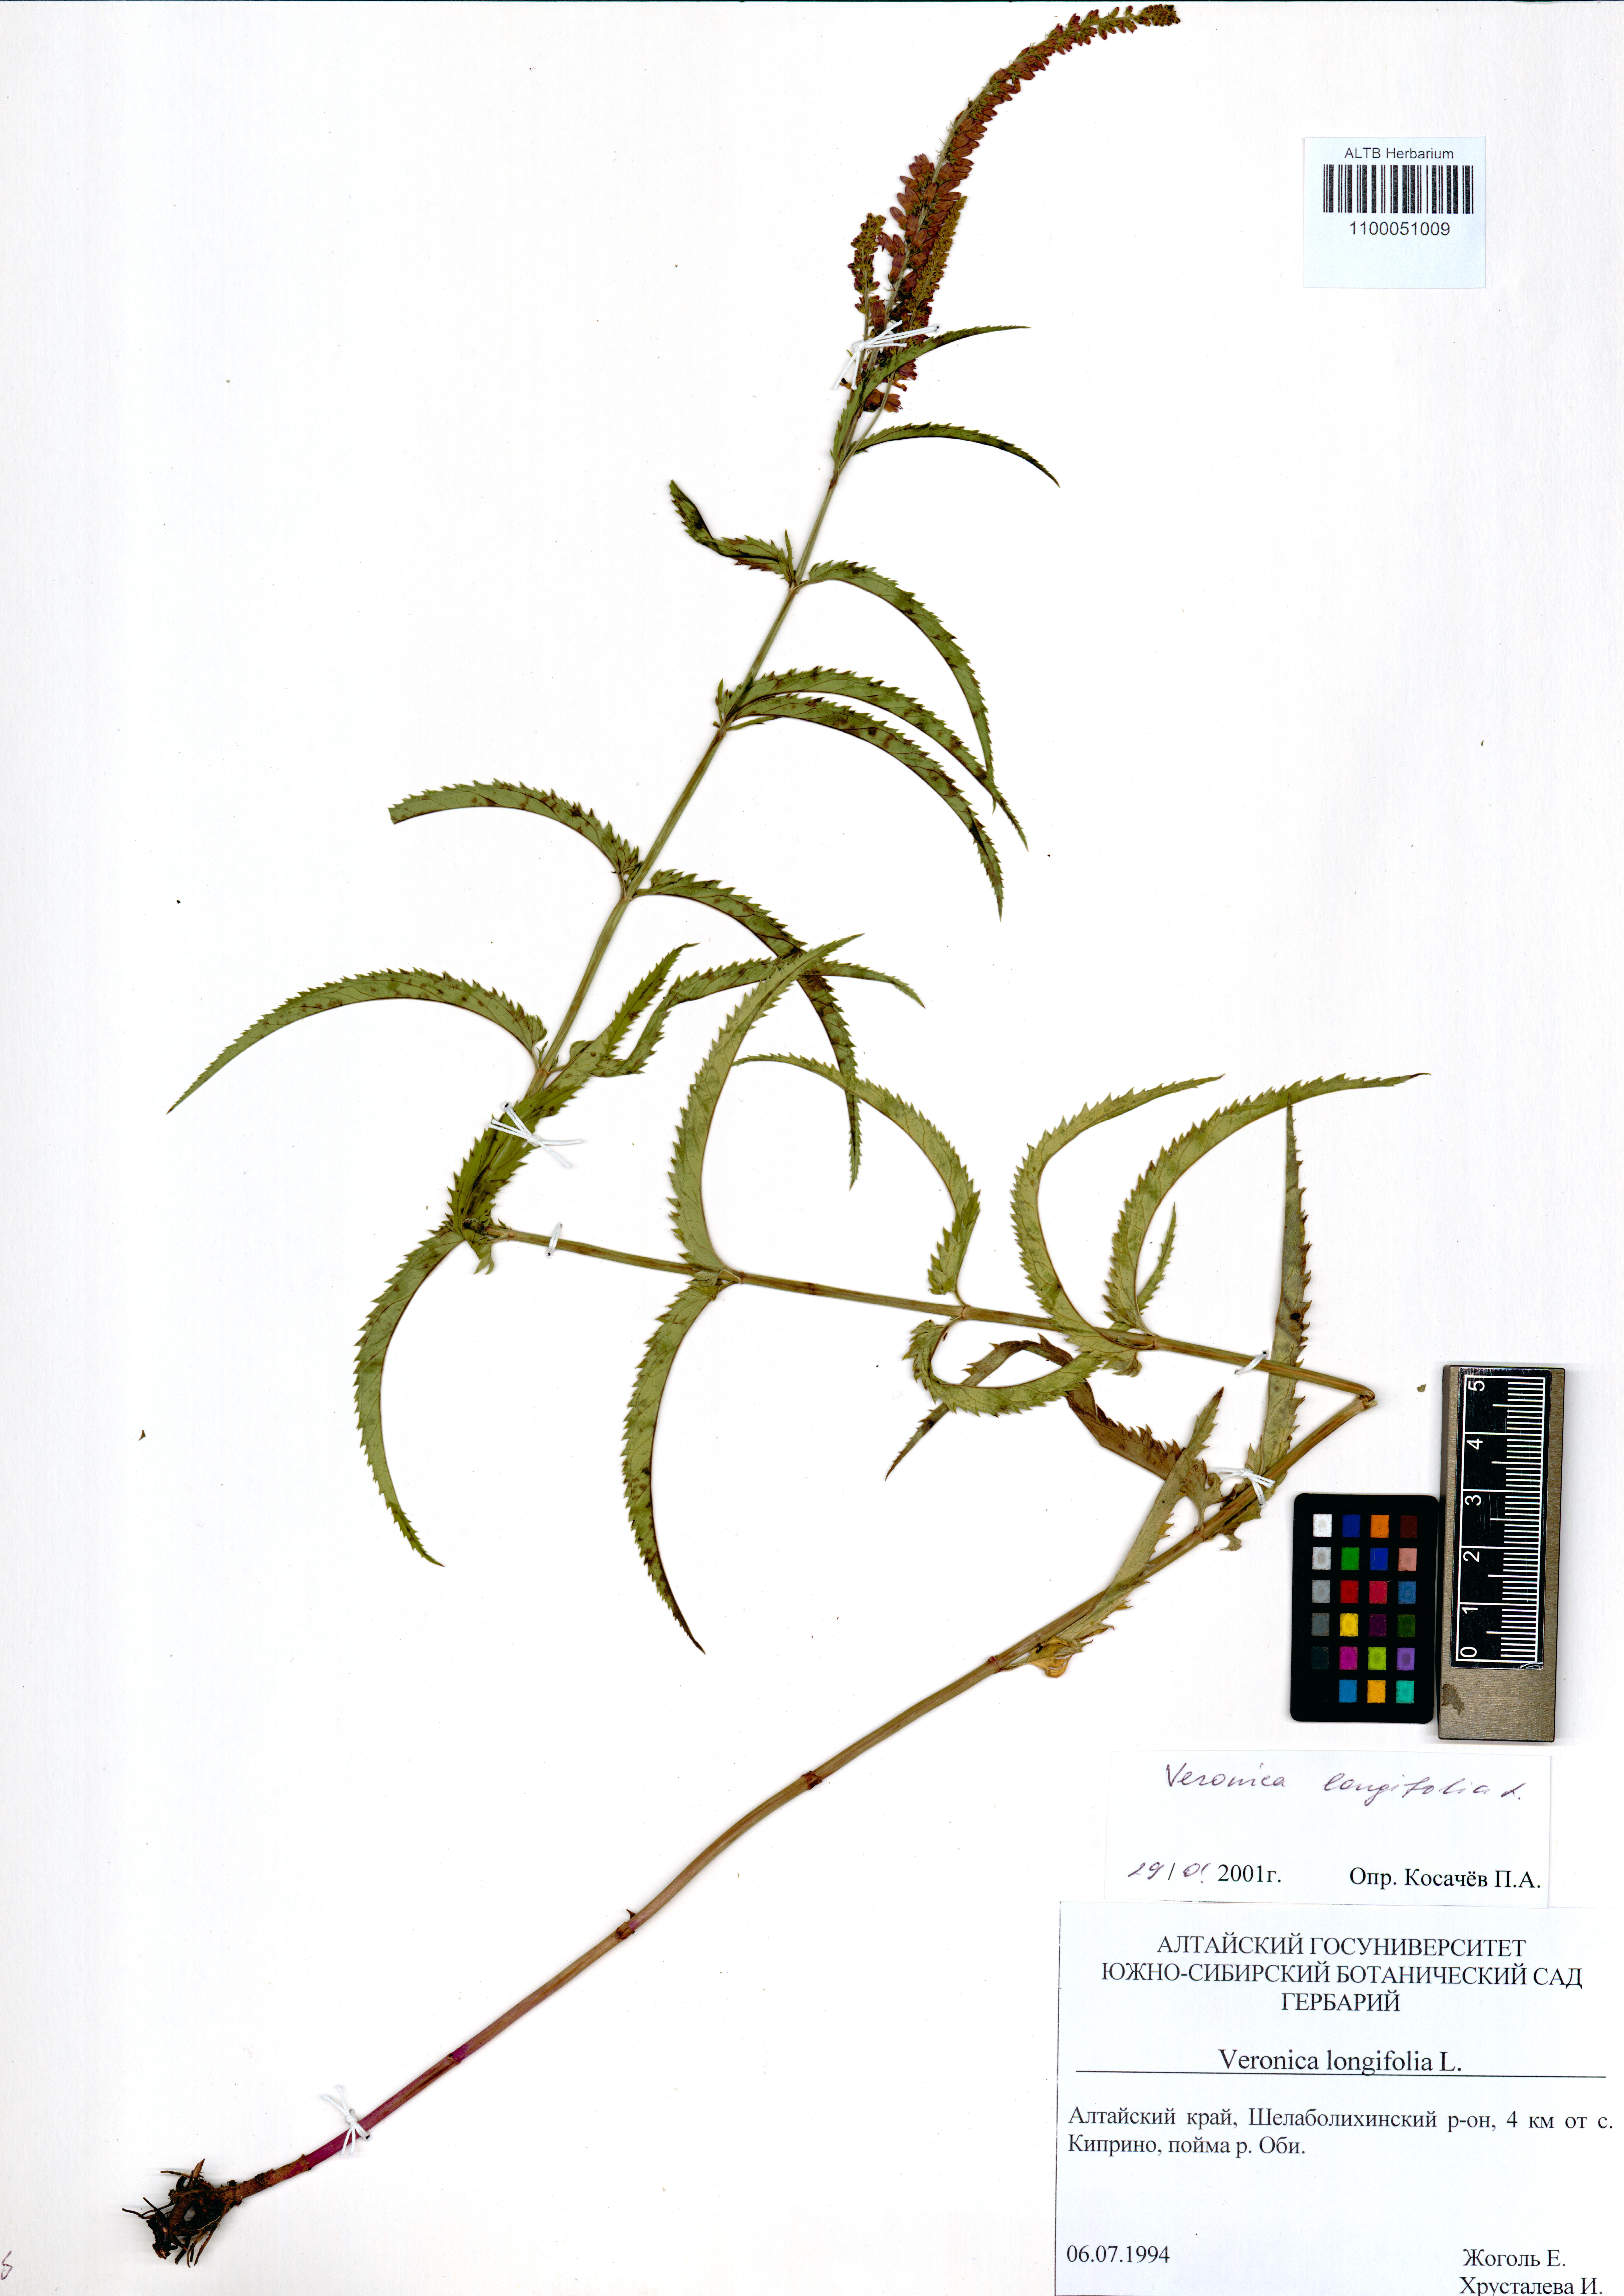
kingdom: Plantae
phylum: Tracheophyta
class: Magnoliopsida
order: Lamiales
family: Plantaginaceae
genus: Veronica
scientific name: Veronica longifolia
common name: Garden speedwell
